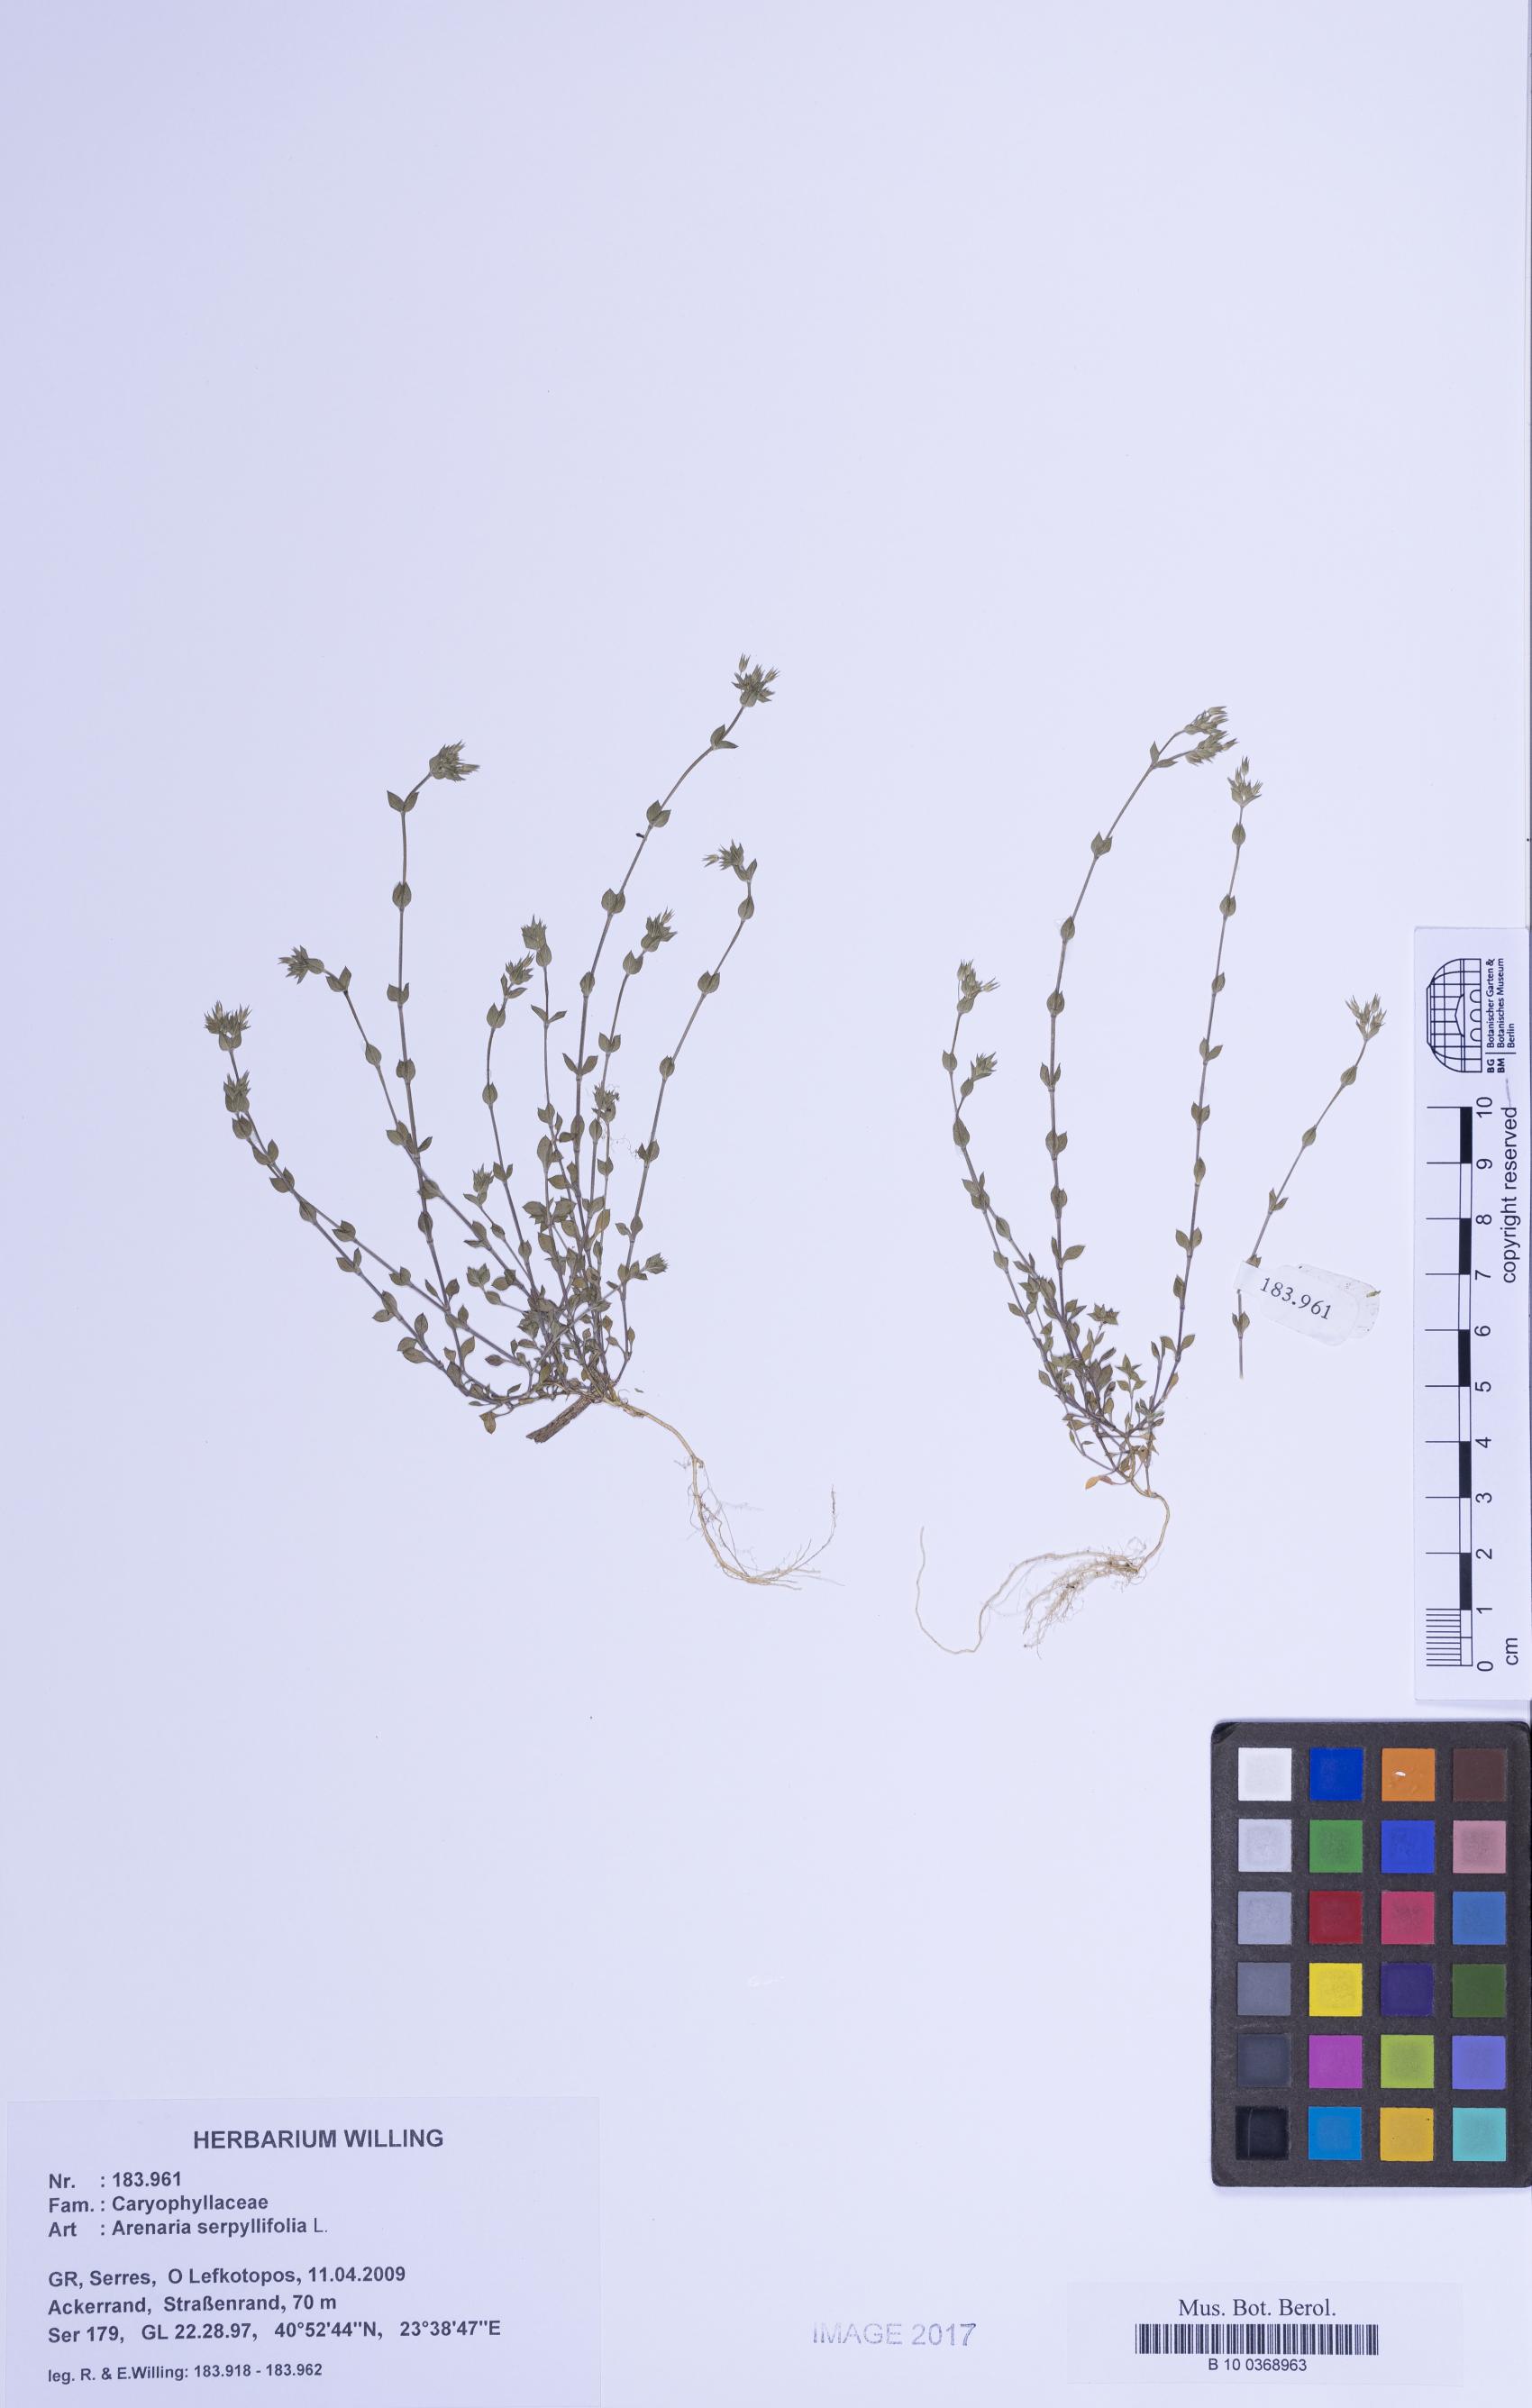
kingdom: Plantae
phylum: Tracheophyta
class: Magnoliopsida
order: Caryophyllales
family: Caryophyllaceae
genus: Arenaria
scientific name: Arenaria serpyllifolia
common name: Thyme-leaved sandwort
